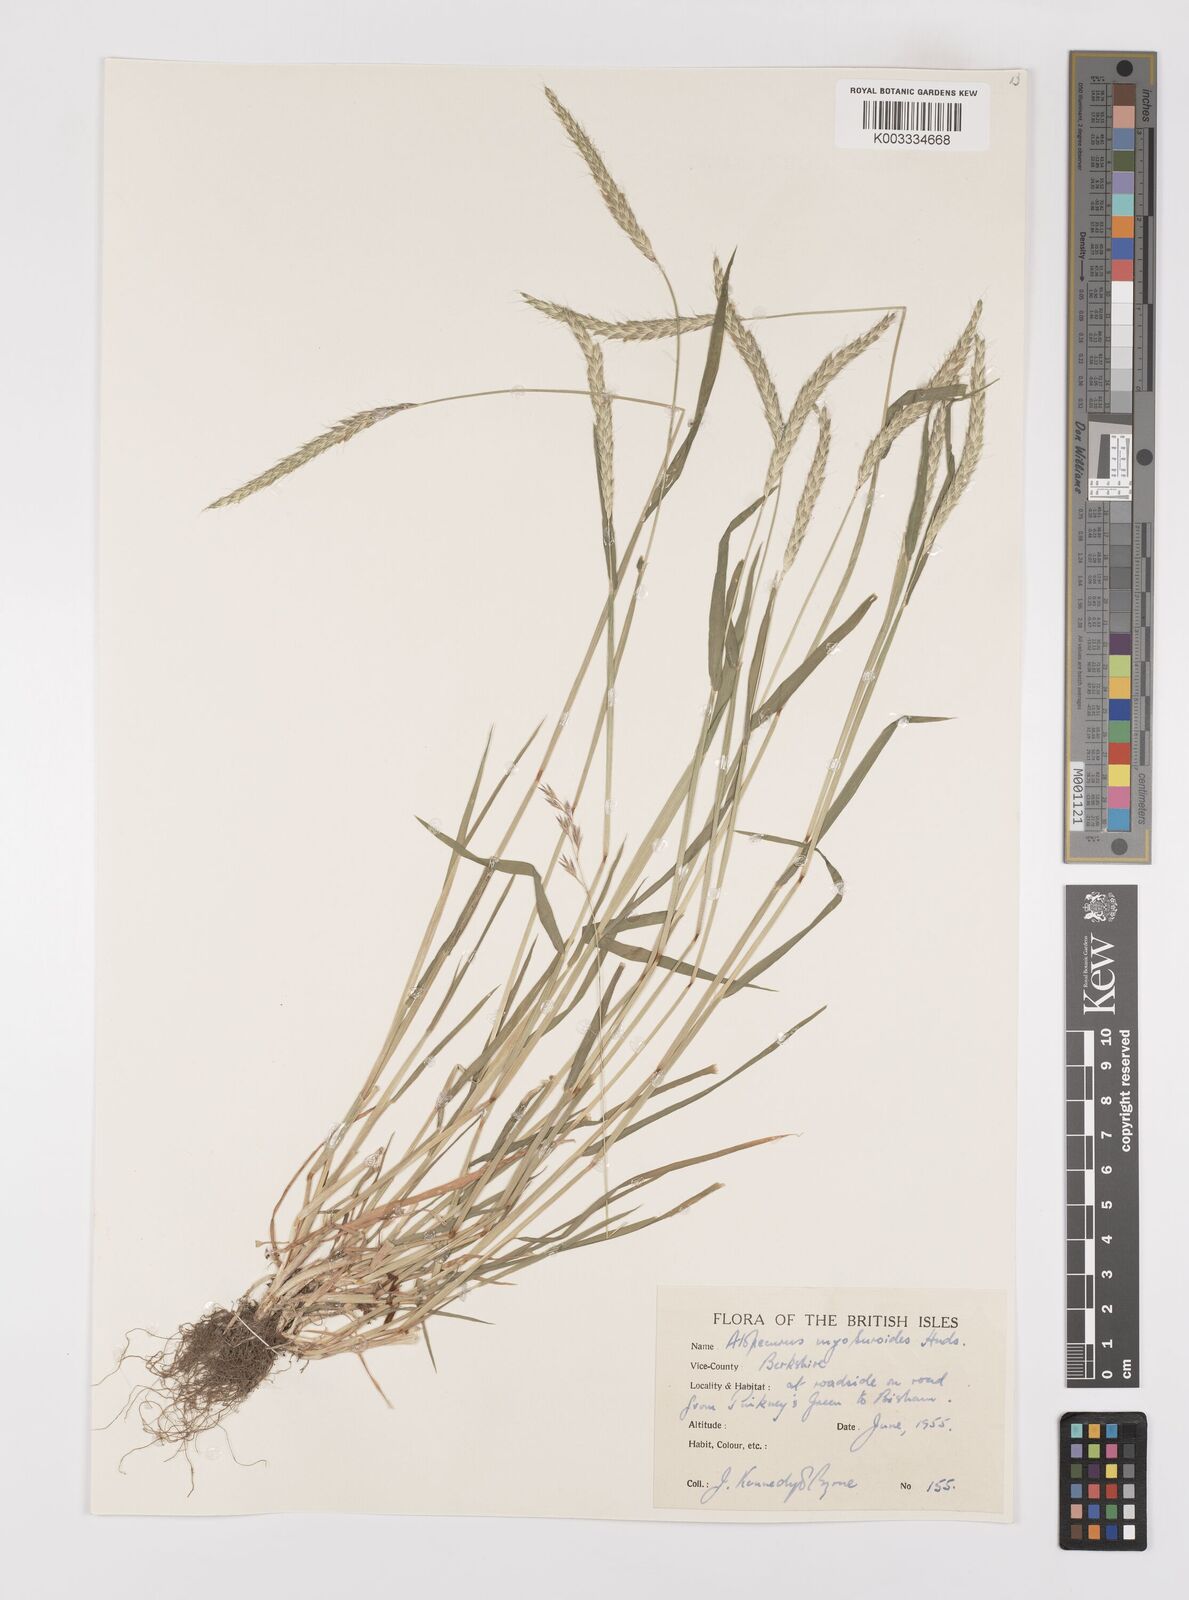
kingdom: Plantae
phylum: Tracheophyta
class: Liliopsida
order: Poales
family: Poaceae
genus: Alopecurus
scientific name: Alopecurus myosuroides
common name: Black-grass
